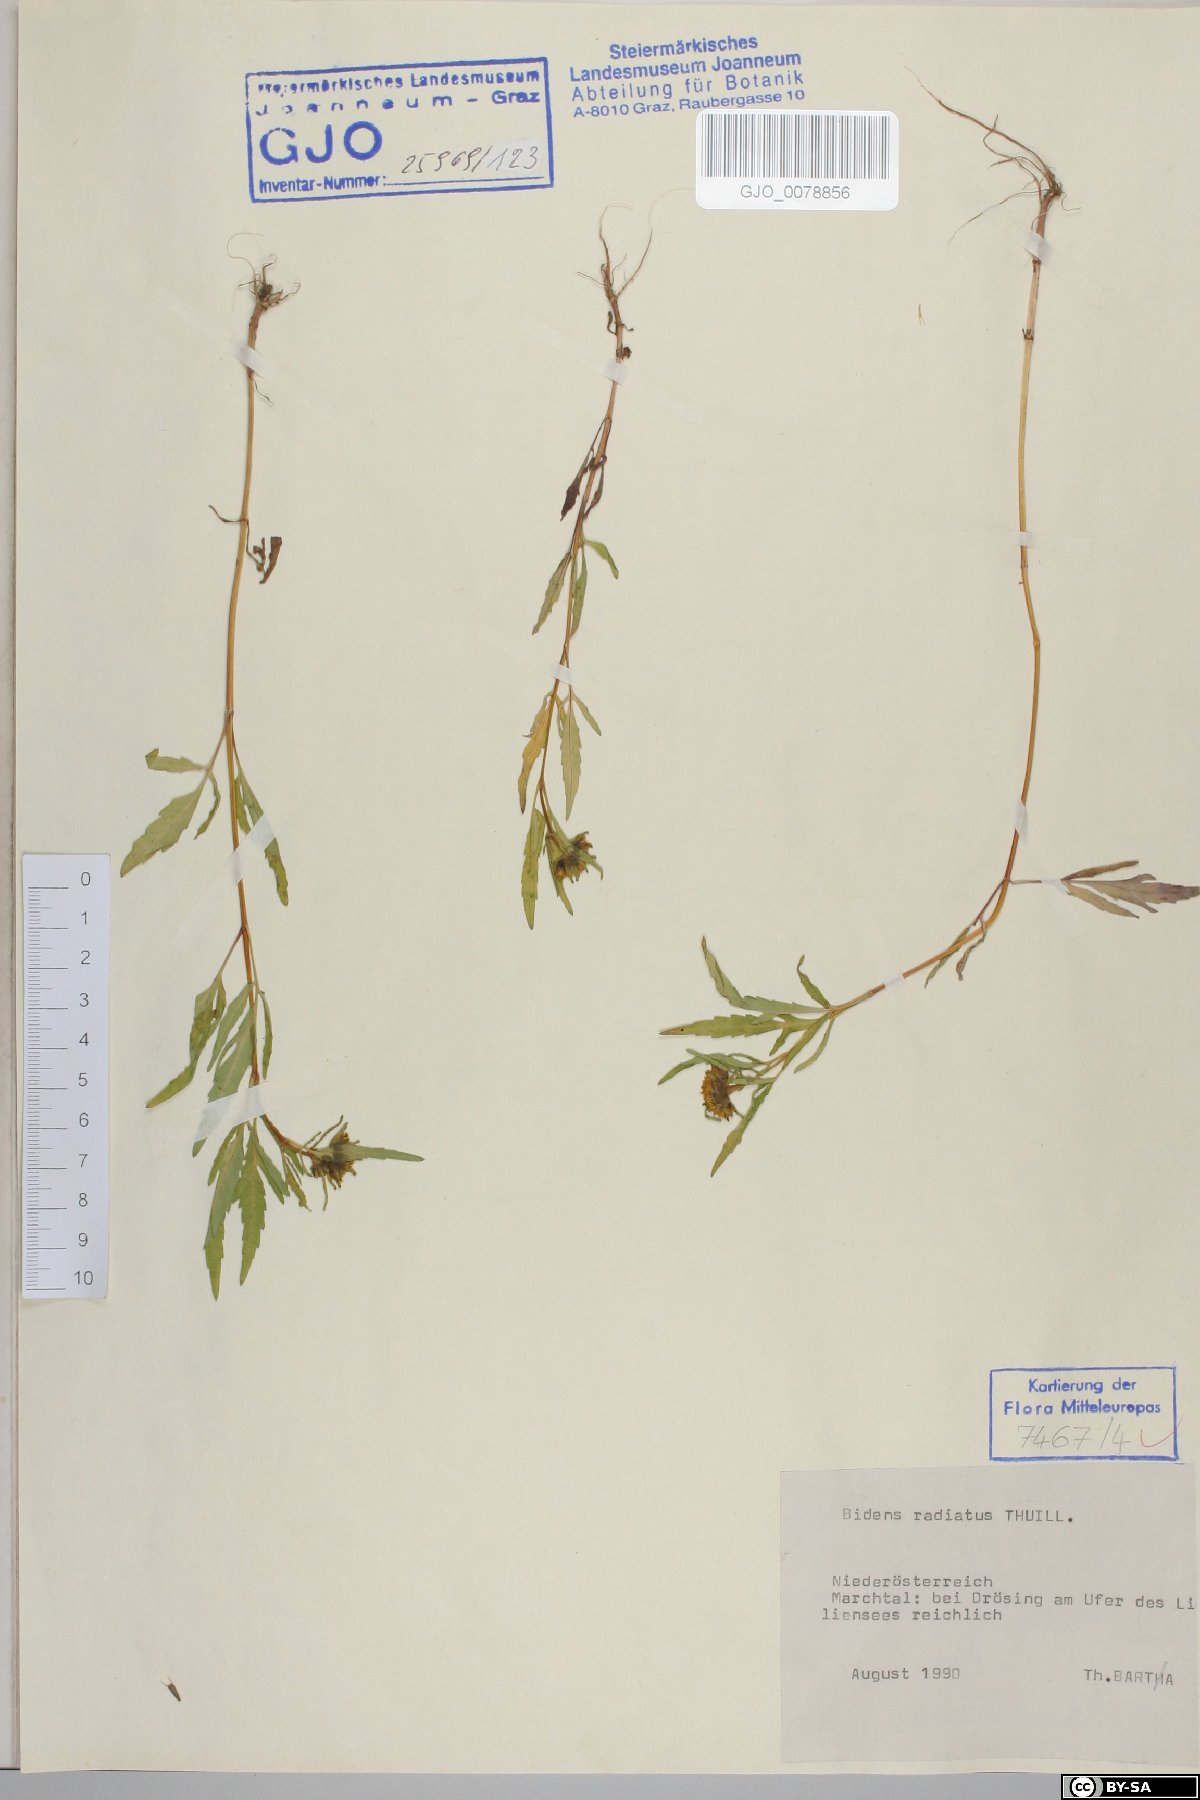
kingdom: Plantae
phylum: Tracheophyta
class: Magnoliopsida
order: Asterales
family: Asteraceae
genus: Bidens
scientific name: Bidens radiata
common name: Radiating bur-marigold
